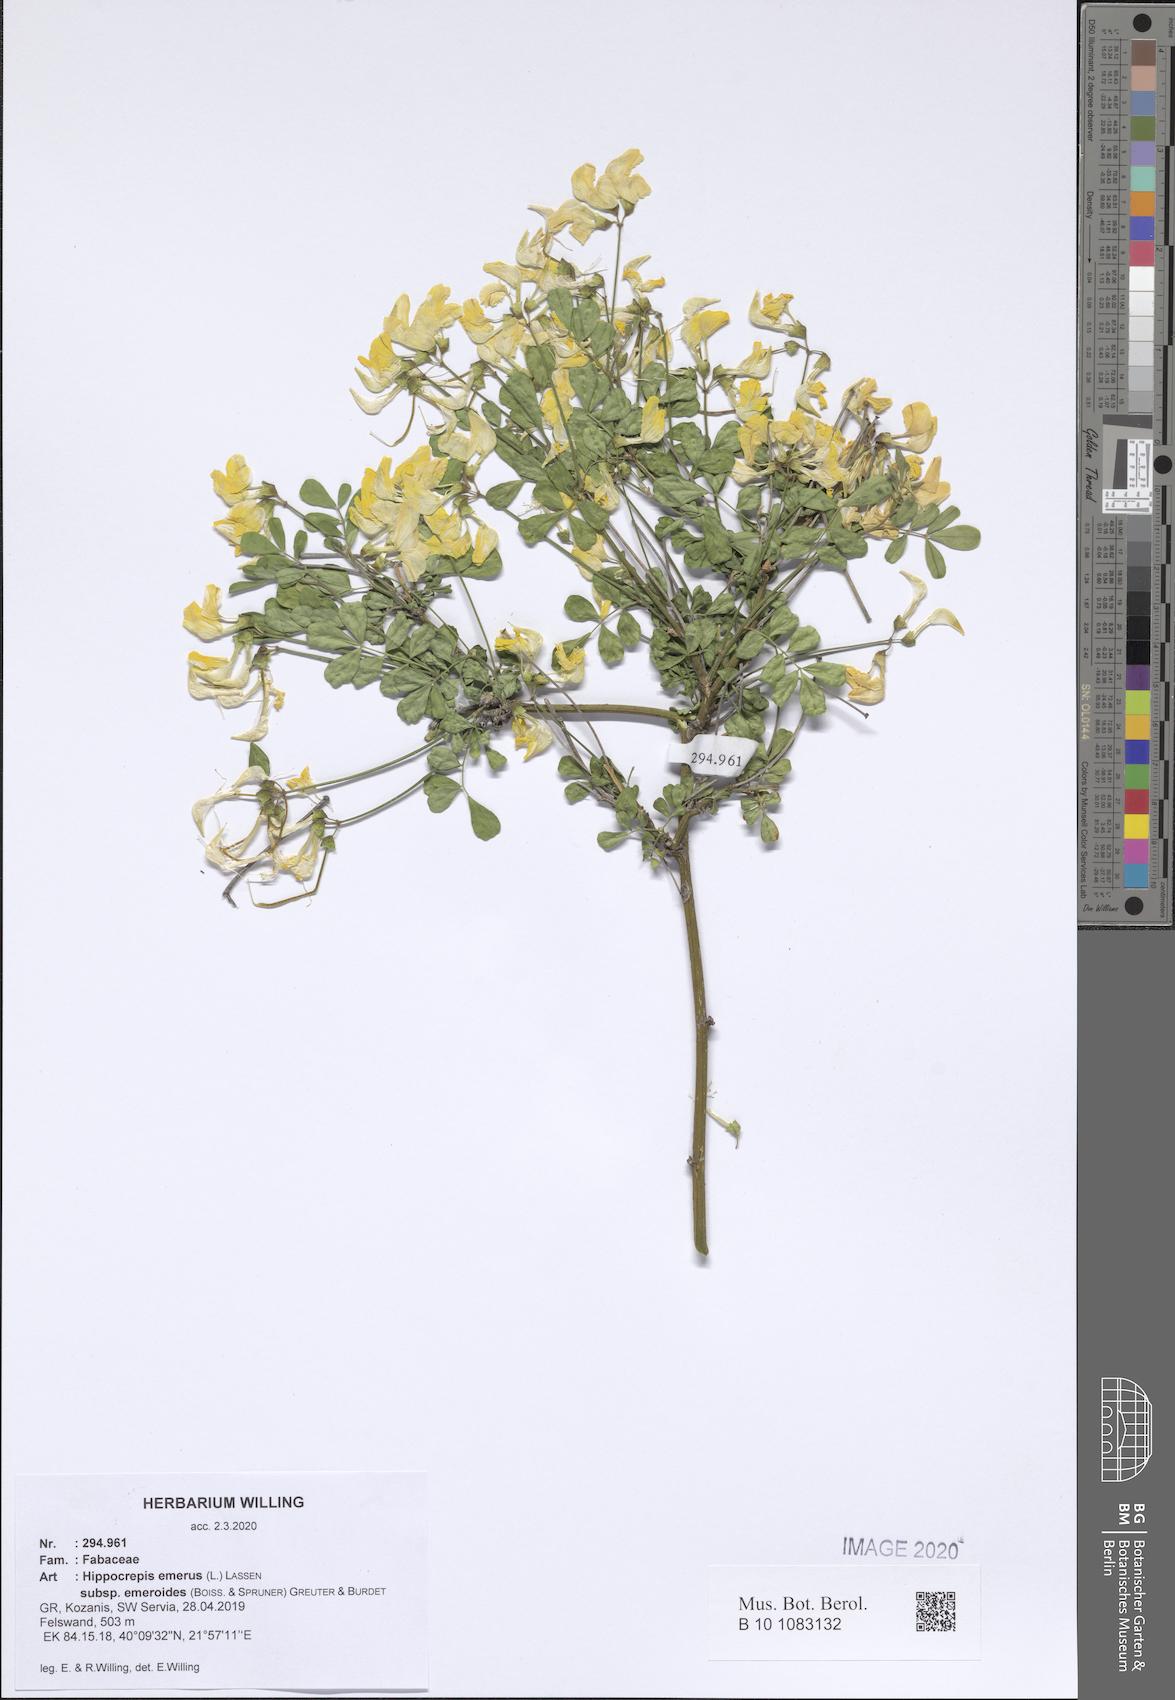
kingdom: Plantae
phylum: Tracheophyta
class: Magnoliopsida
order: Fabales
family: Fabaceae
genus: Hippocrepis
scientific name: Hippocrepis emerus
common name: Scorpion senna
